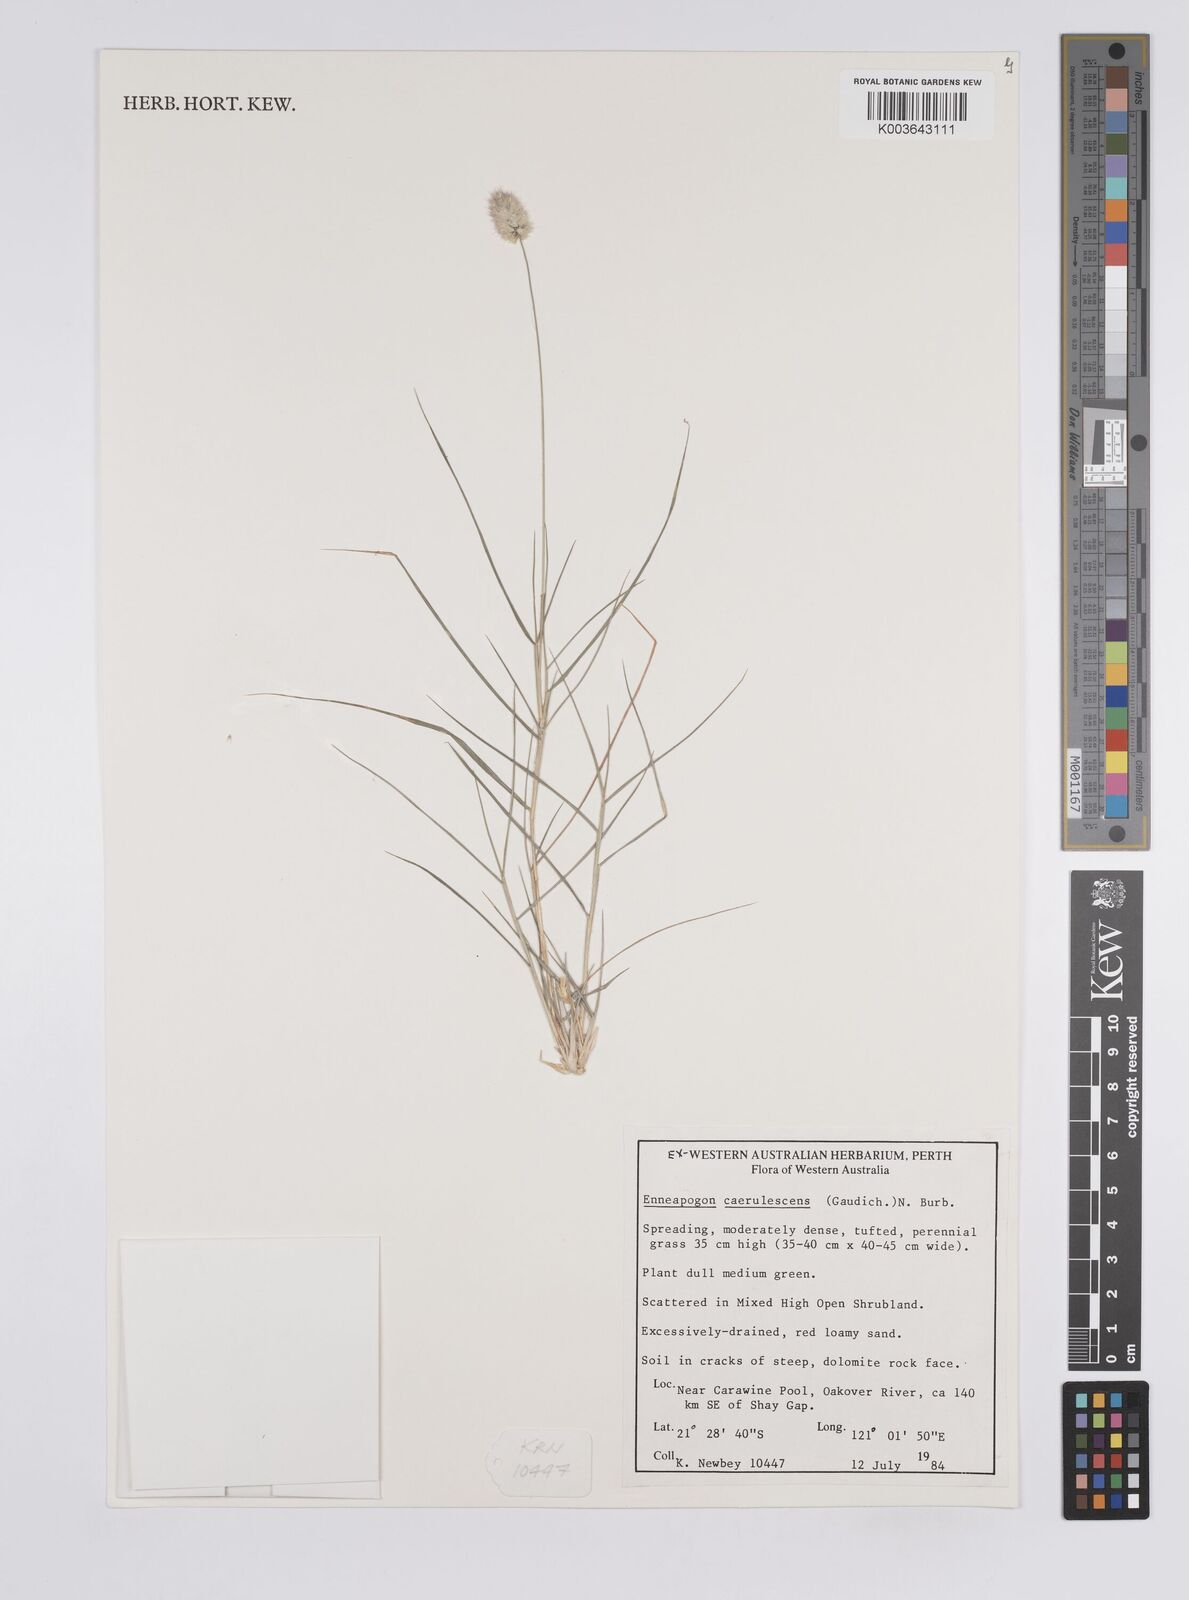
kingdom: Plantae
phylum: Tracheophyta
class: Liliopsida
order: Poales
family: Poaceae
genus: Enneapogon
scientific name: Enneapogon caerulescens
